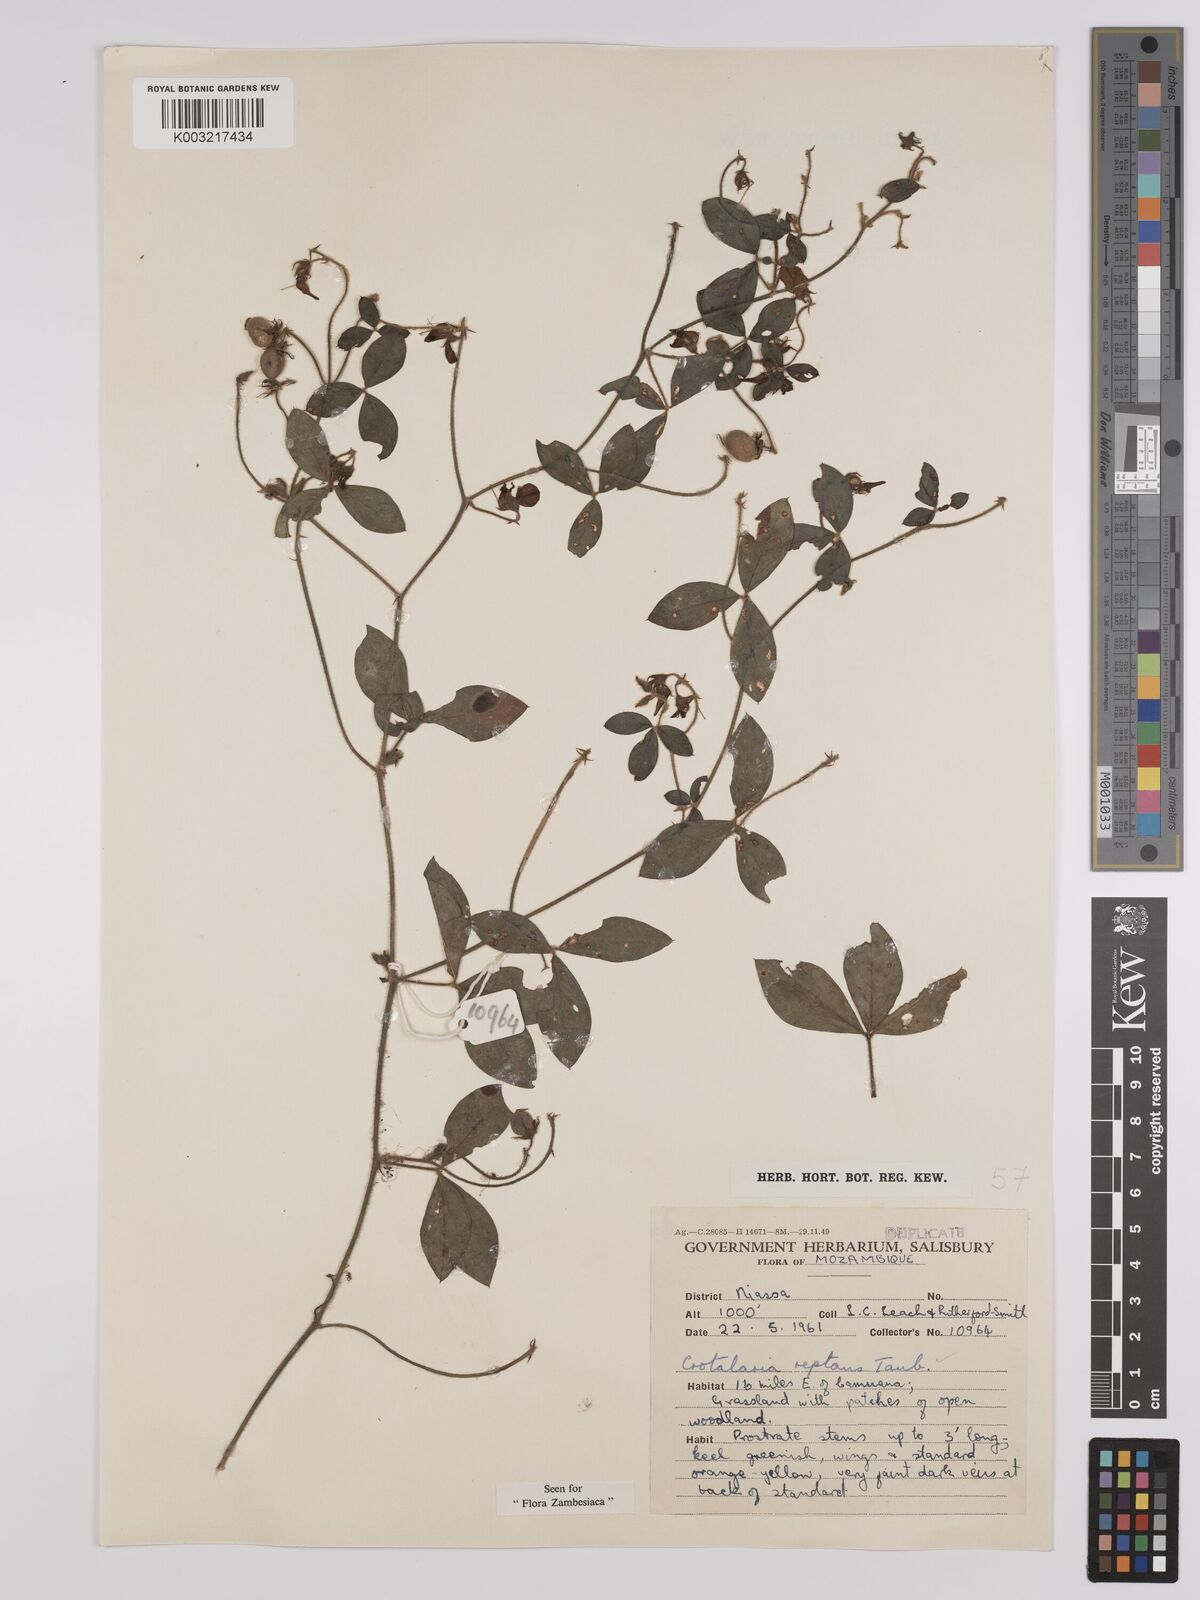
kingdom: Plantae
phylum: Tracheophyta
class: Magnoliopsida
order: Fabales
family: Fabaceae
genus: Crotalaria
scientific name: Crotalaria reptans
